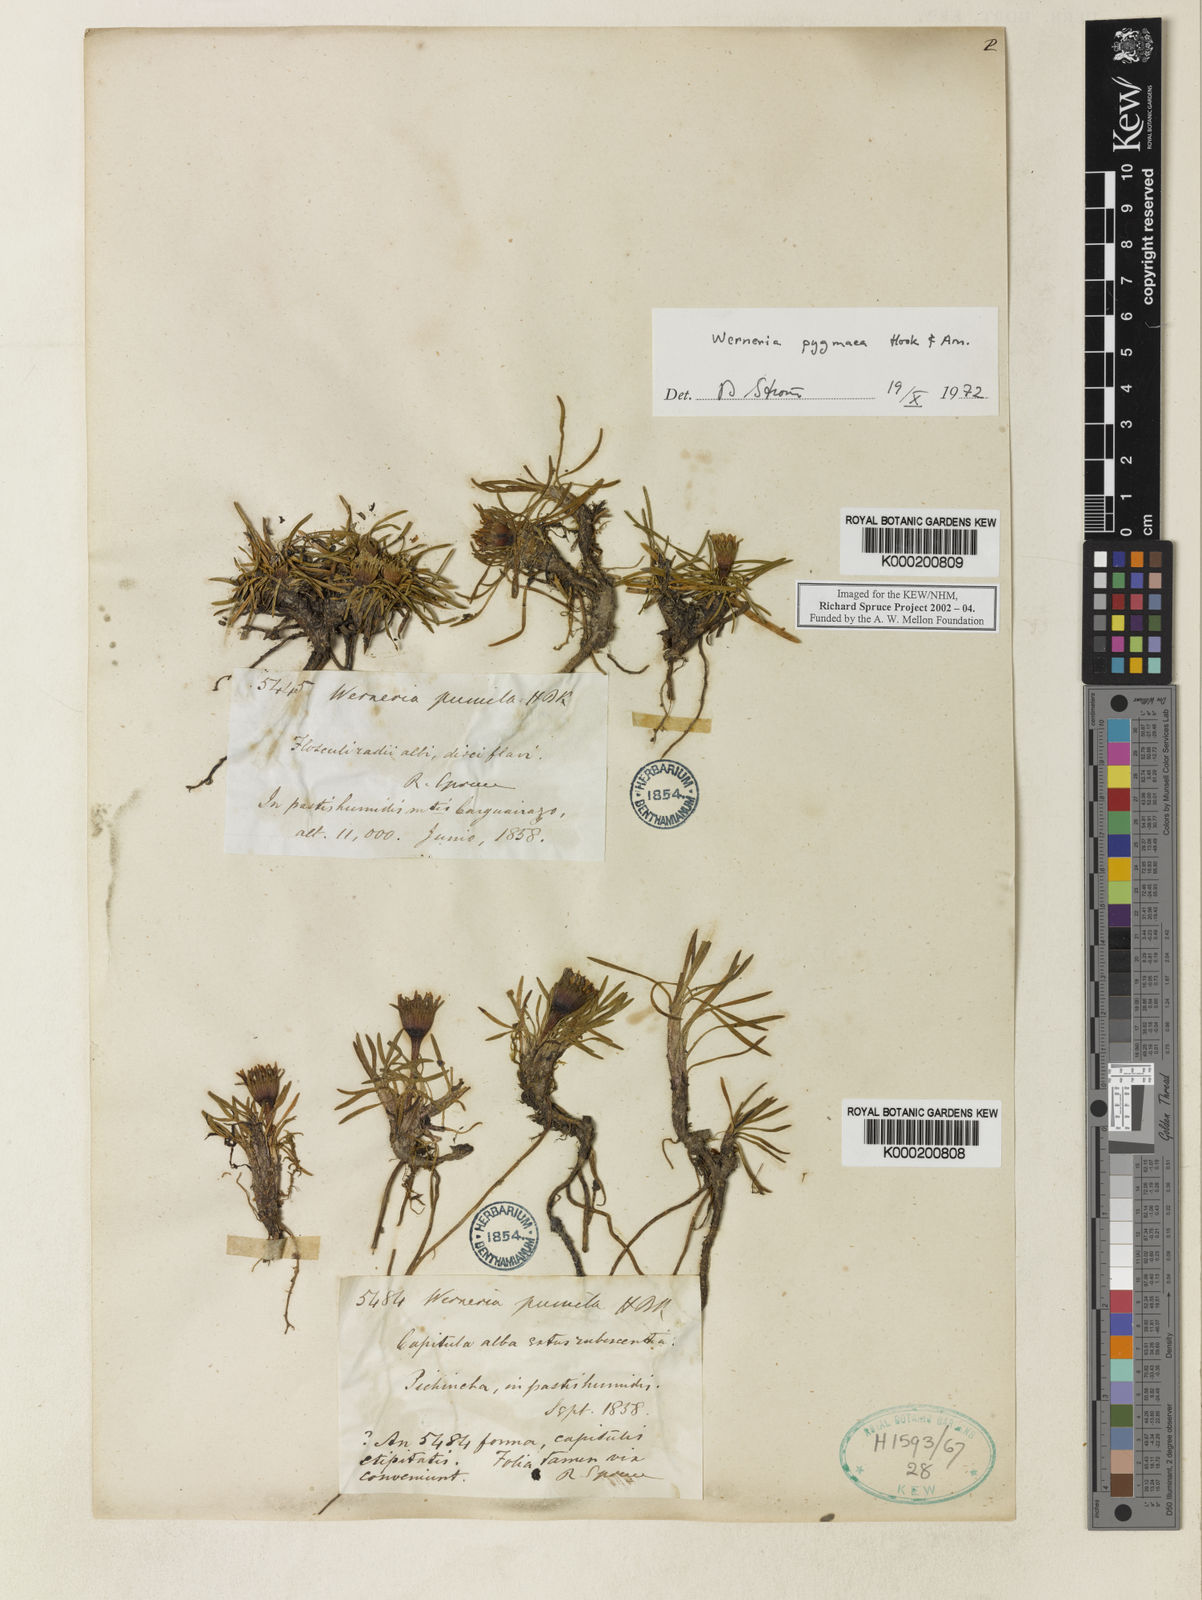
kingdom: Plantae
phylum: Tracheophyta
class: Magnoliopsida
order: Asterales
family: Asteraceae
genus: Rockhausenia
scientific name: Rockhausenia pygmaea
